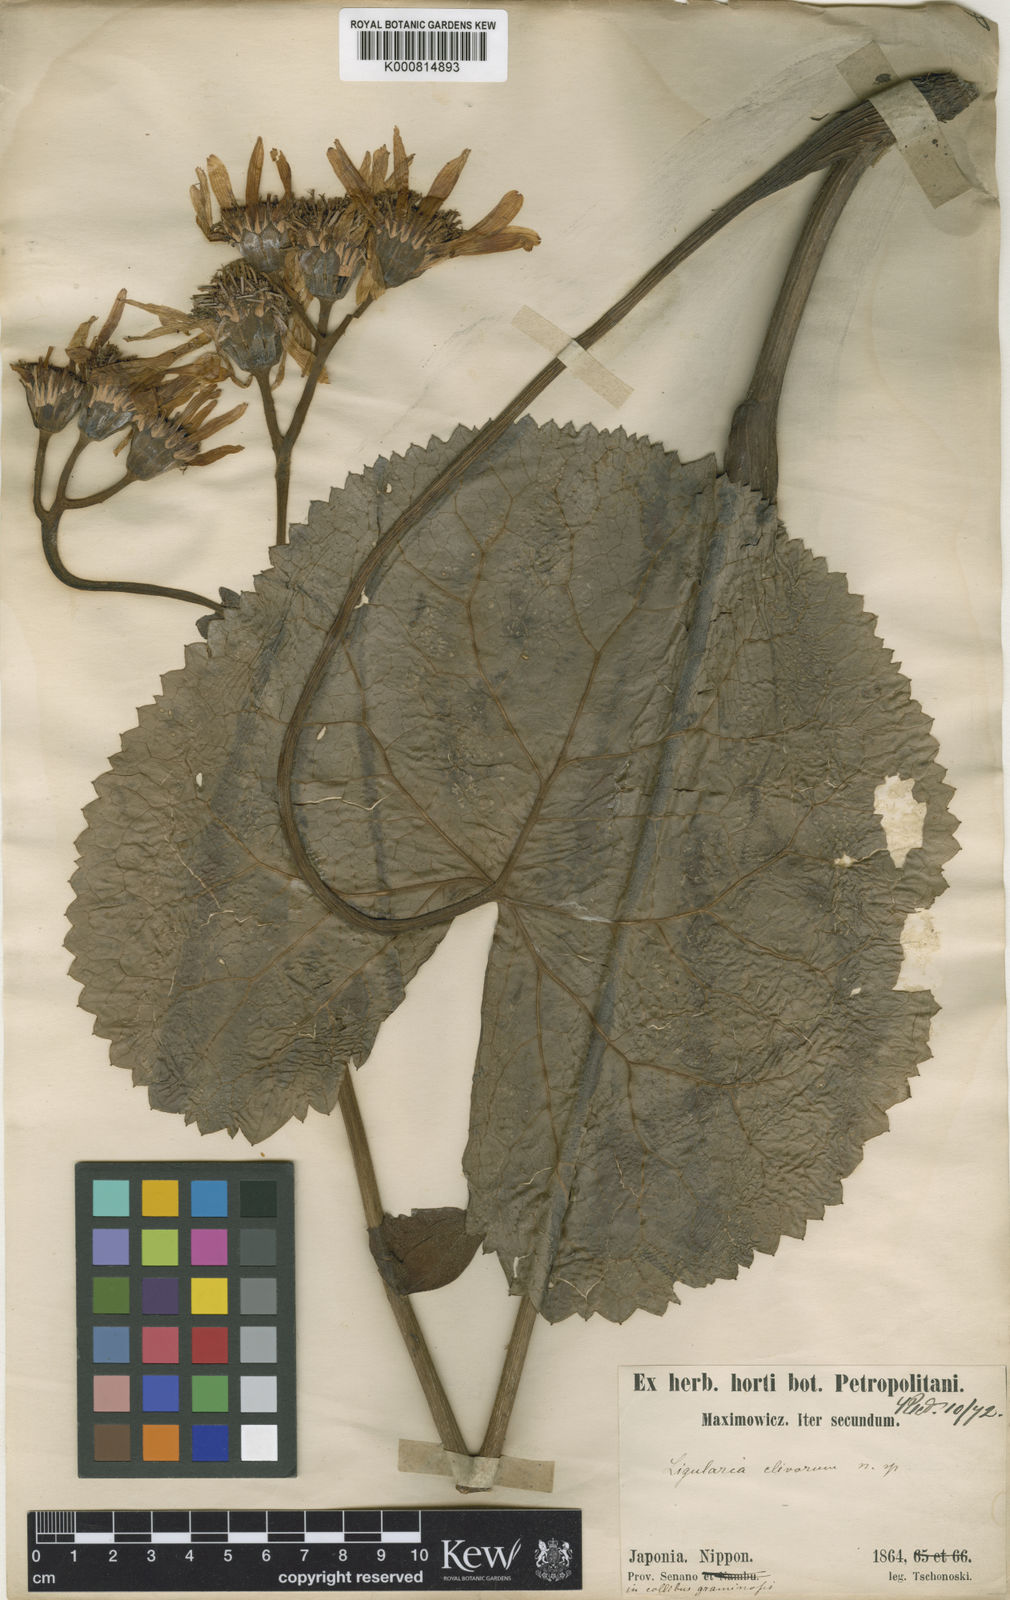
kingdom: Plantae
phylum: Tracheophyta
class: Magnoliopsida
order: Asterales
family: Asteraceae
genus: Ligularia
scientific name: Ligularia dentata
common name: Leopardplant
